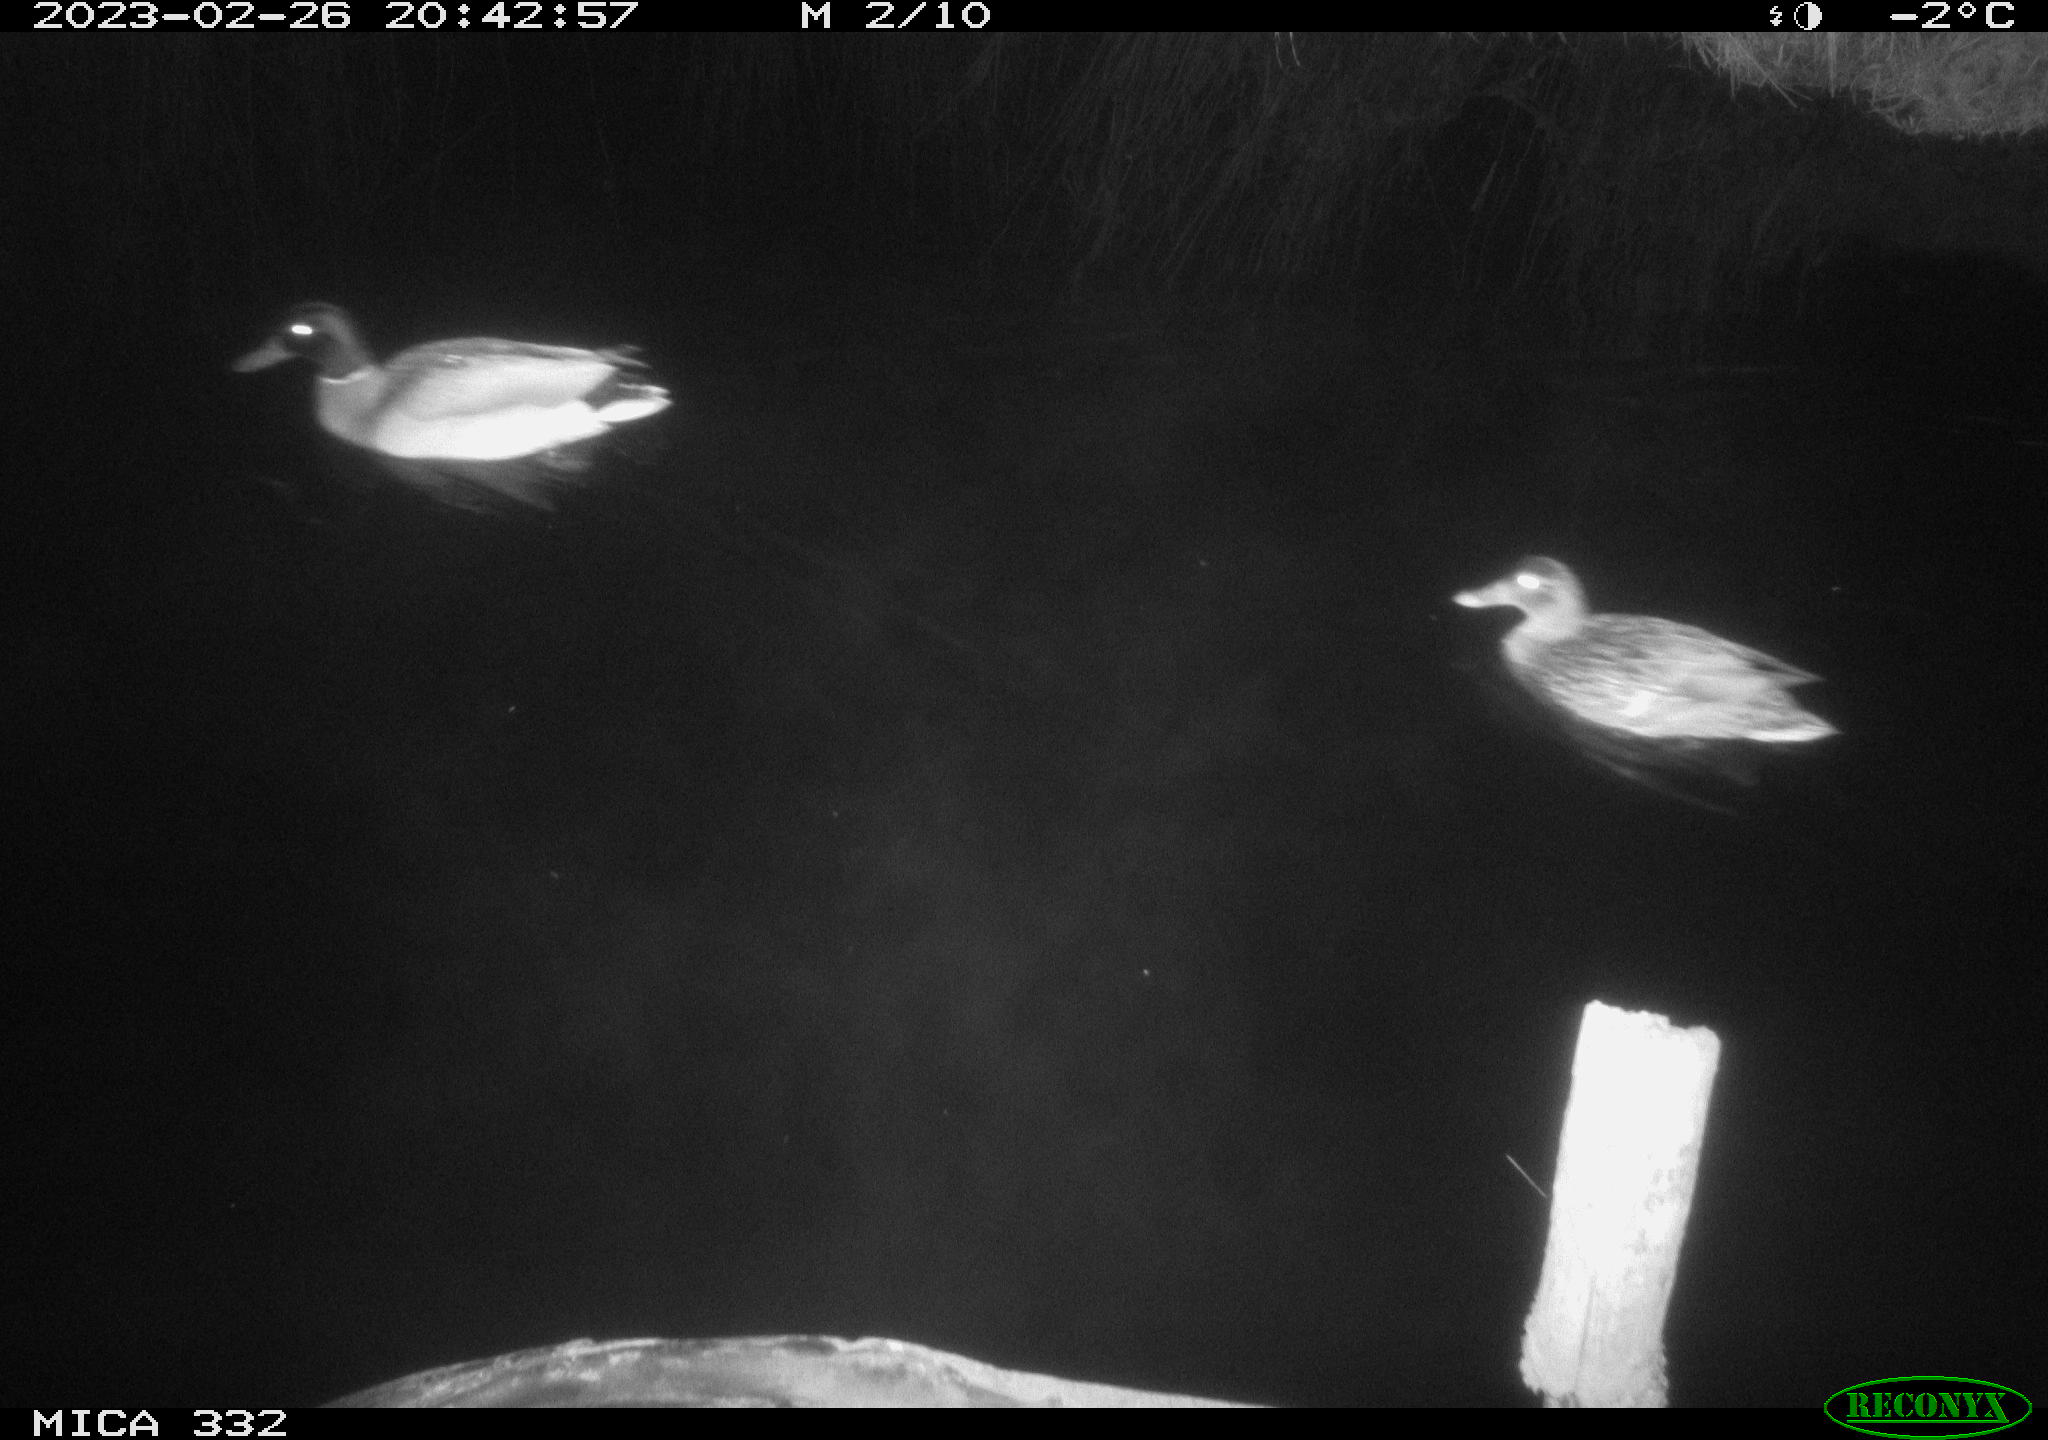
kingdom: Animalia
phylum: Chordata
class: Aves
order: Anseriformes
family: Anatidae
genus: Anas
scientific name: Anas
